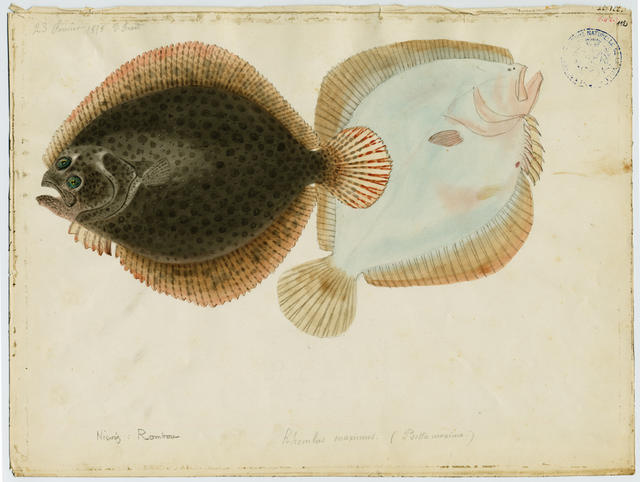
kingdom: Animalia
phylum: Chordata
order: Pleuronectiformes
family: Scophthalmidae
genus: Scophthalmus
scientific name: Scophthalmus maximus
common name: Turbot
